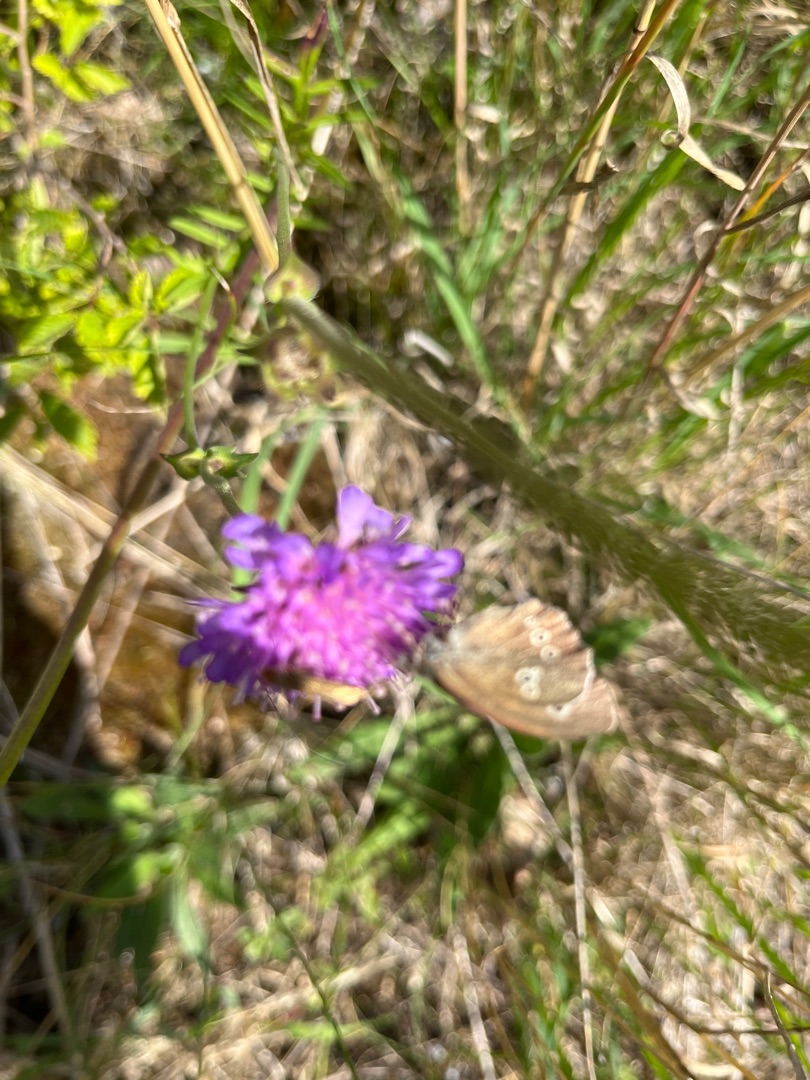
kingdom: Animalia
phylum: Arthropoda
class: Insecta
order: Lepidoptera
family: Nymphalidae
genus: Aphantopus
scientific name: Aphantopus hyperantus
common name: Engrandøje
